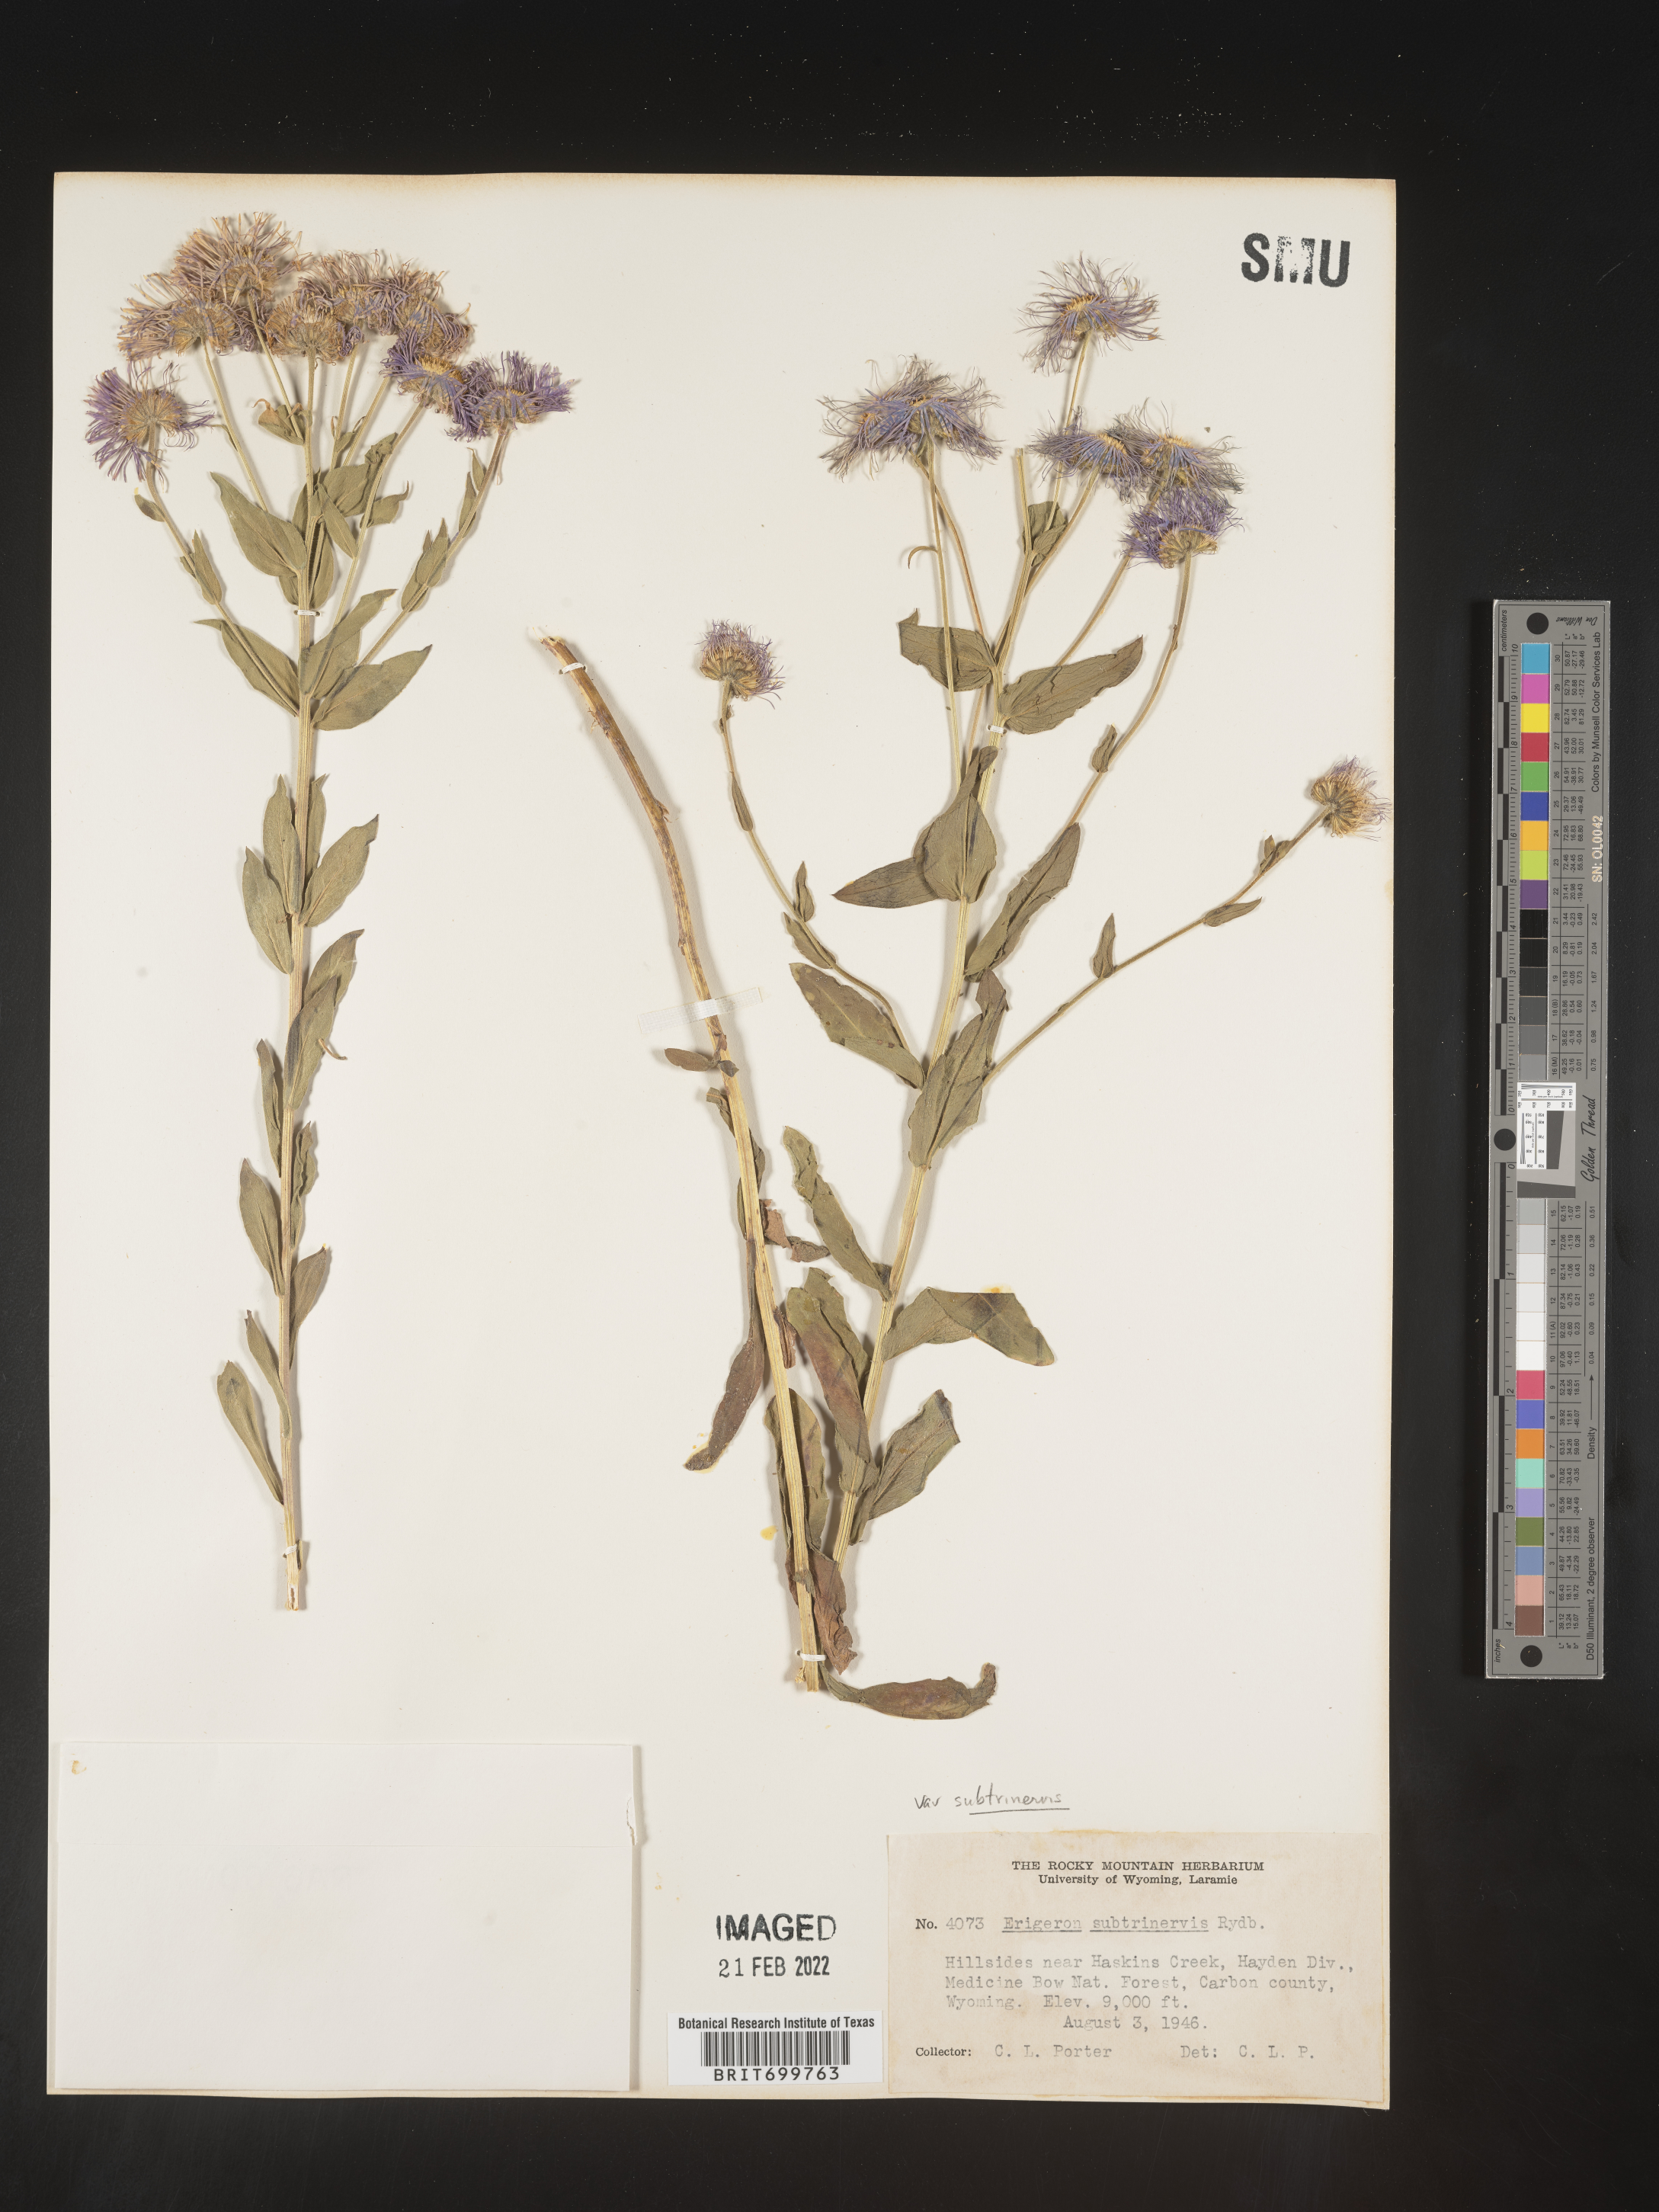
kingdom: Plantae
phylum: Tracheophyta
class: Magnoliopsida
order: Asterales
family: Asteraceae
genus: Erigeron
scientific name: Erigeron subtrinervis
